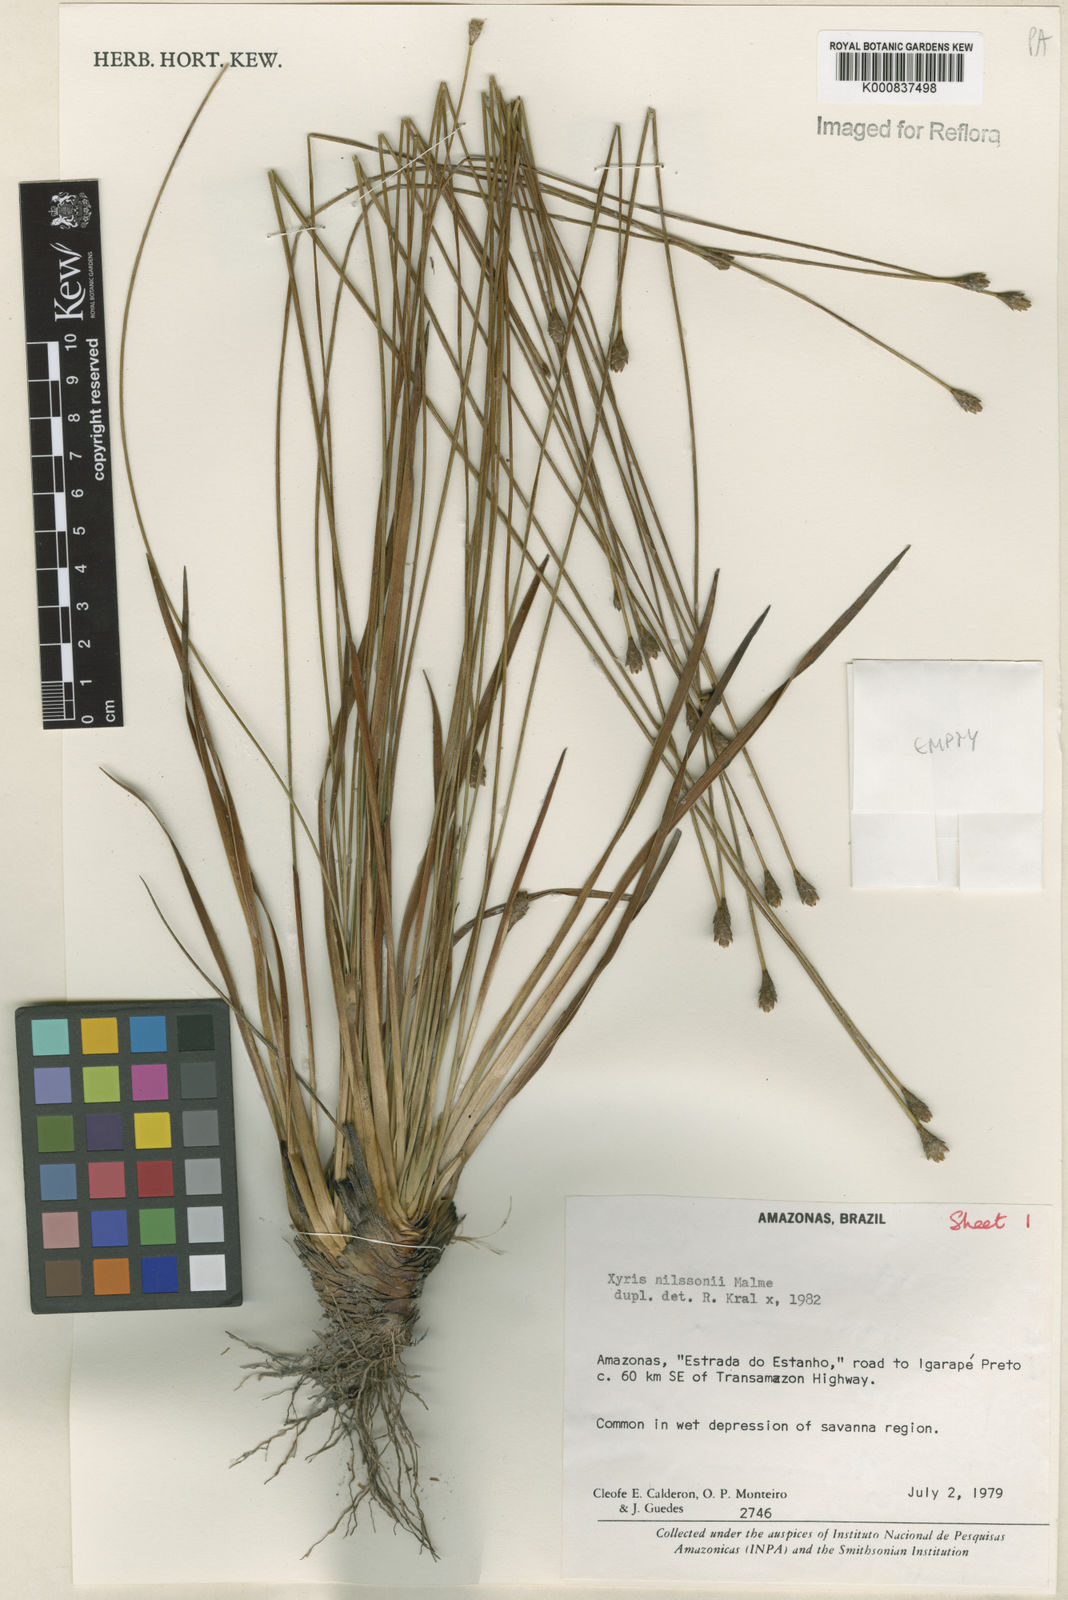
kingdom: Plantae
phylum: Tracheophyta
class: Liliopsida
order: Poales
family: Xyridaceae
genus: Xyris
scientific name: Xyris nilssonii
